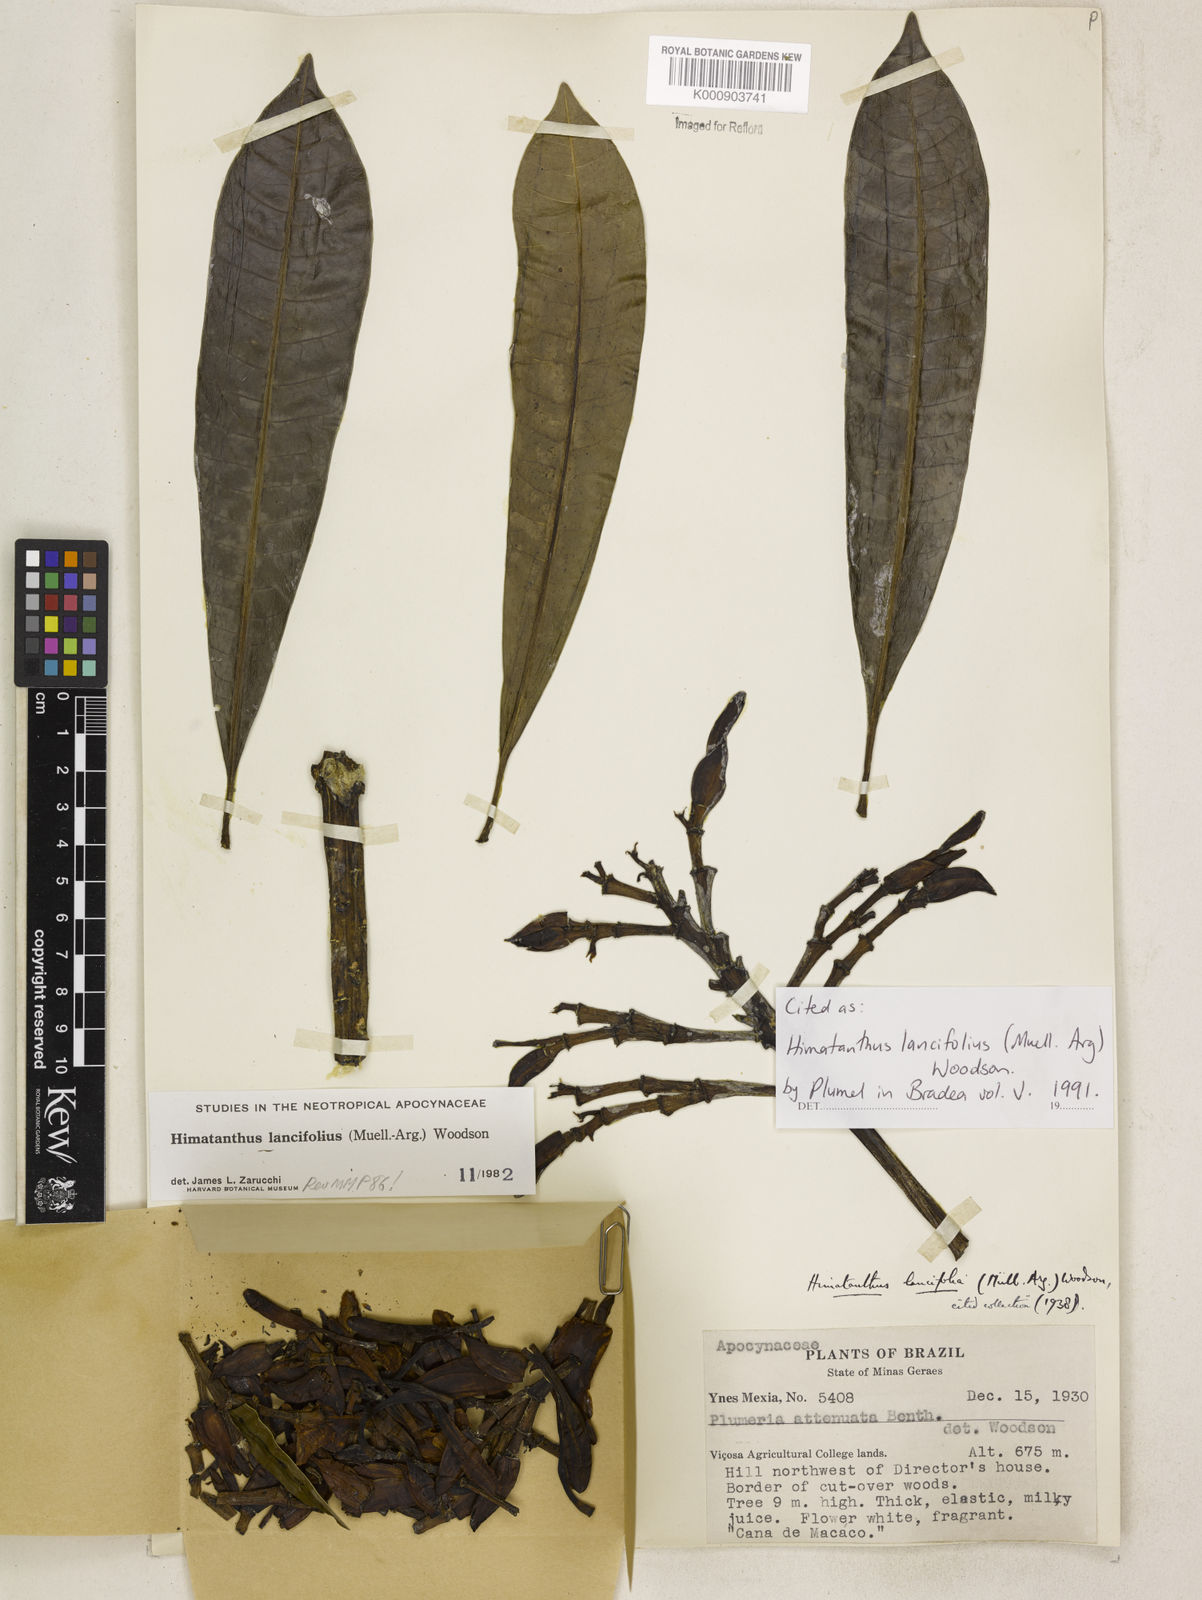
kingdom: Plantae
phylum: Tracheophyta
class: Magnoliopsida
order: Gentianales
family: Apocynaceae
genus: Himatanthus
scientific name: Himatanthus
